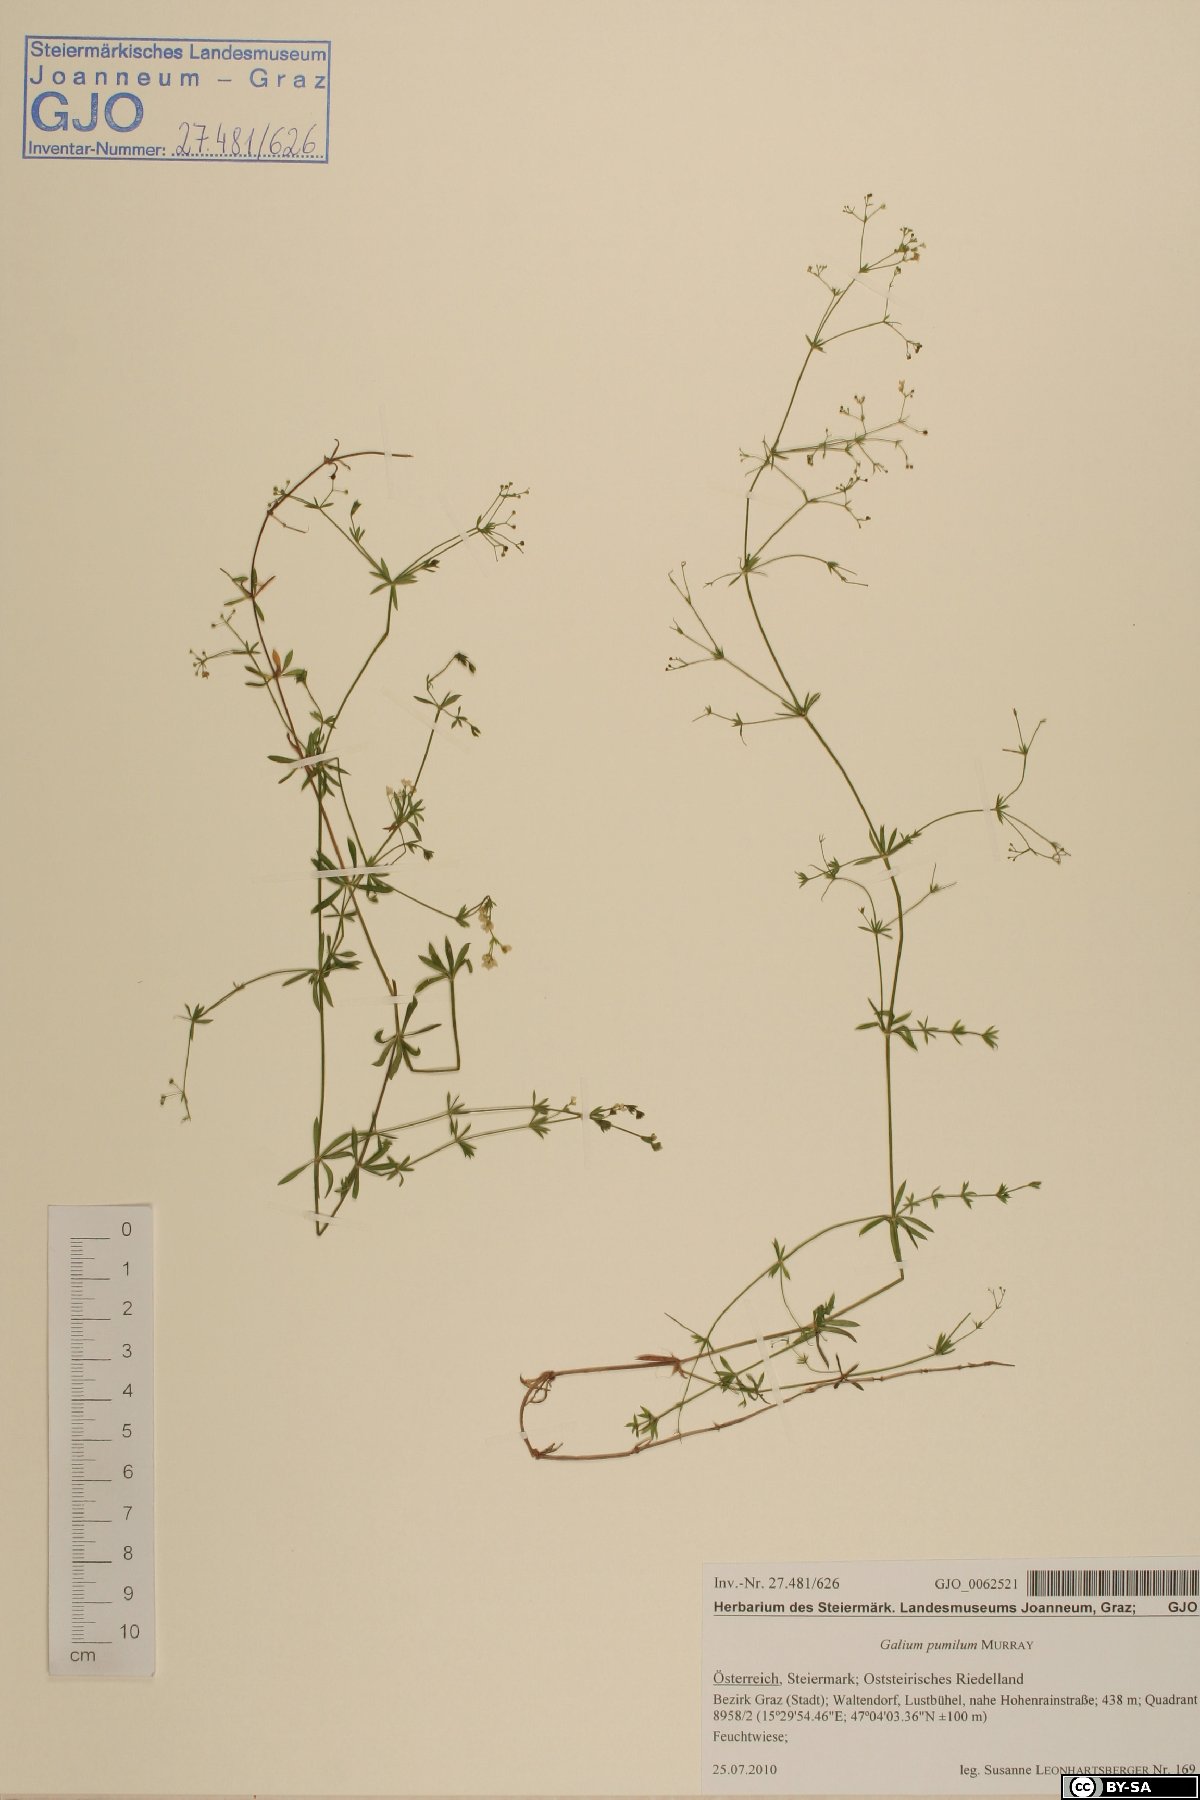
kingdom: Plantae
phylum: Tracheophyta
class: Magnoliopsida
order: Gentianales
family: Rubiaceae
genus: Galium
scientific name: Galium pumilum
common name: Slender bedstraw
